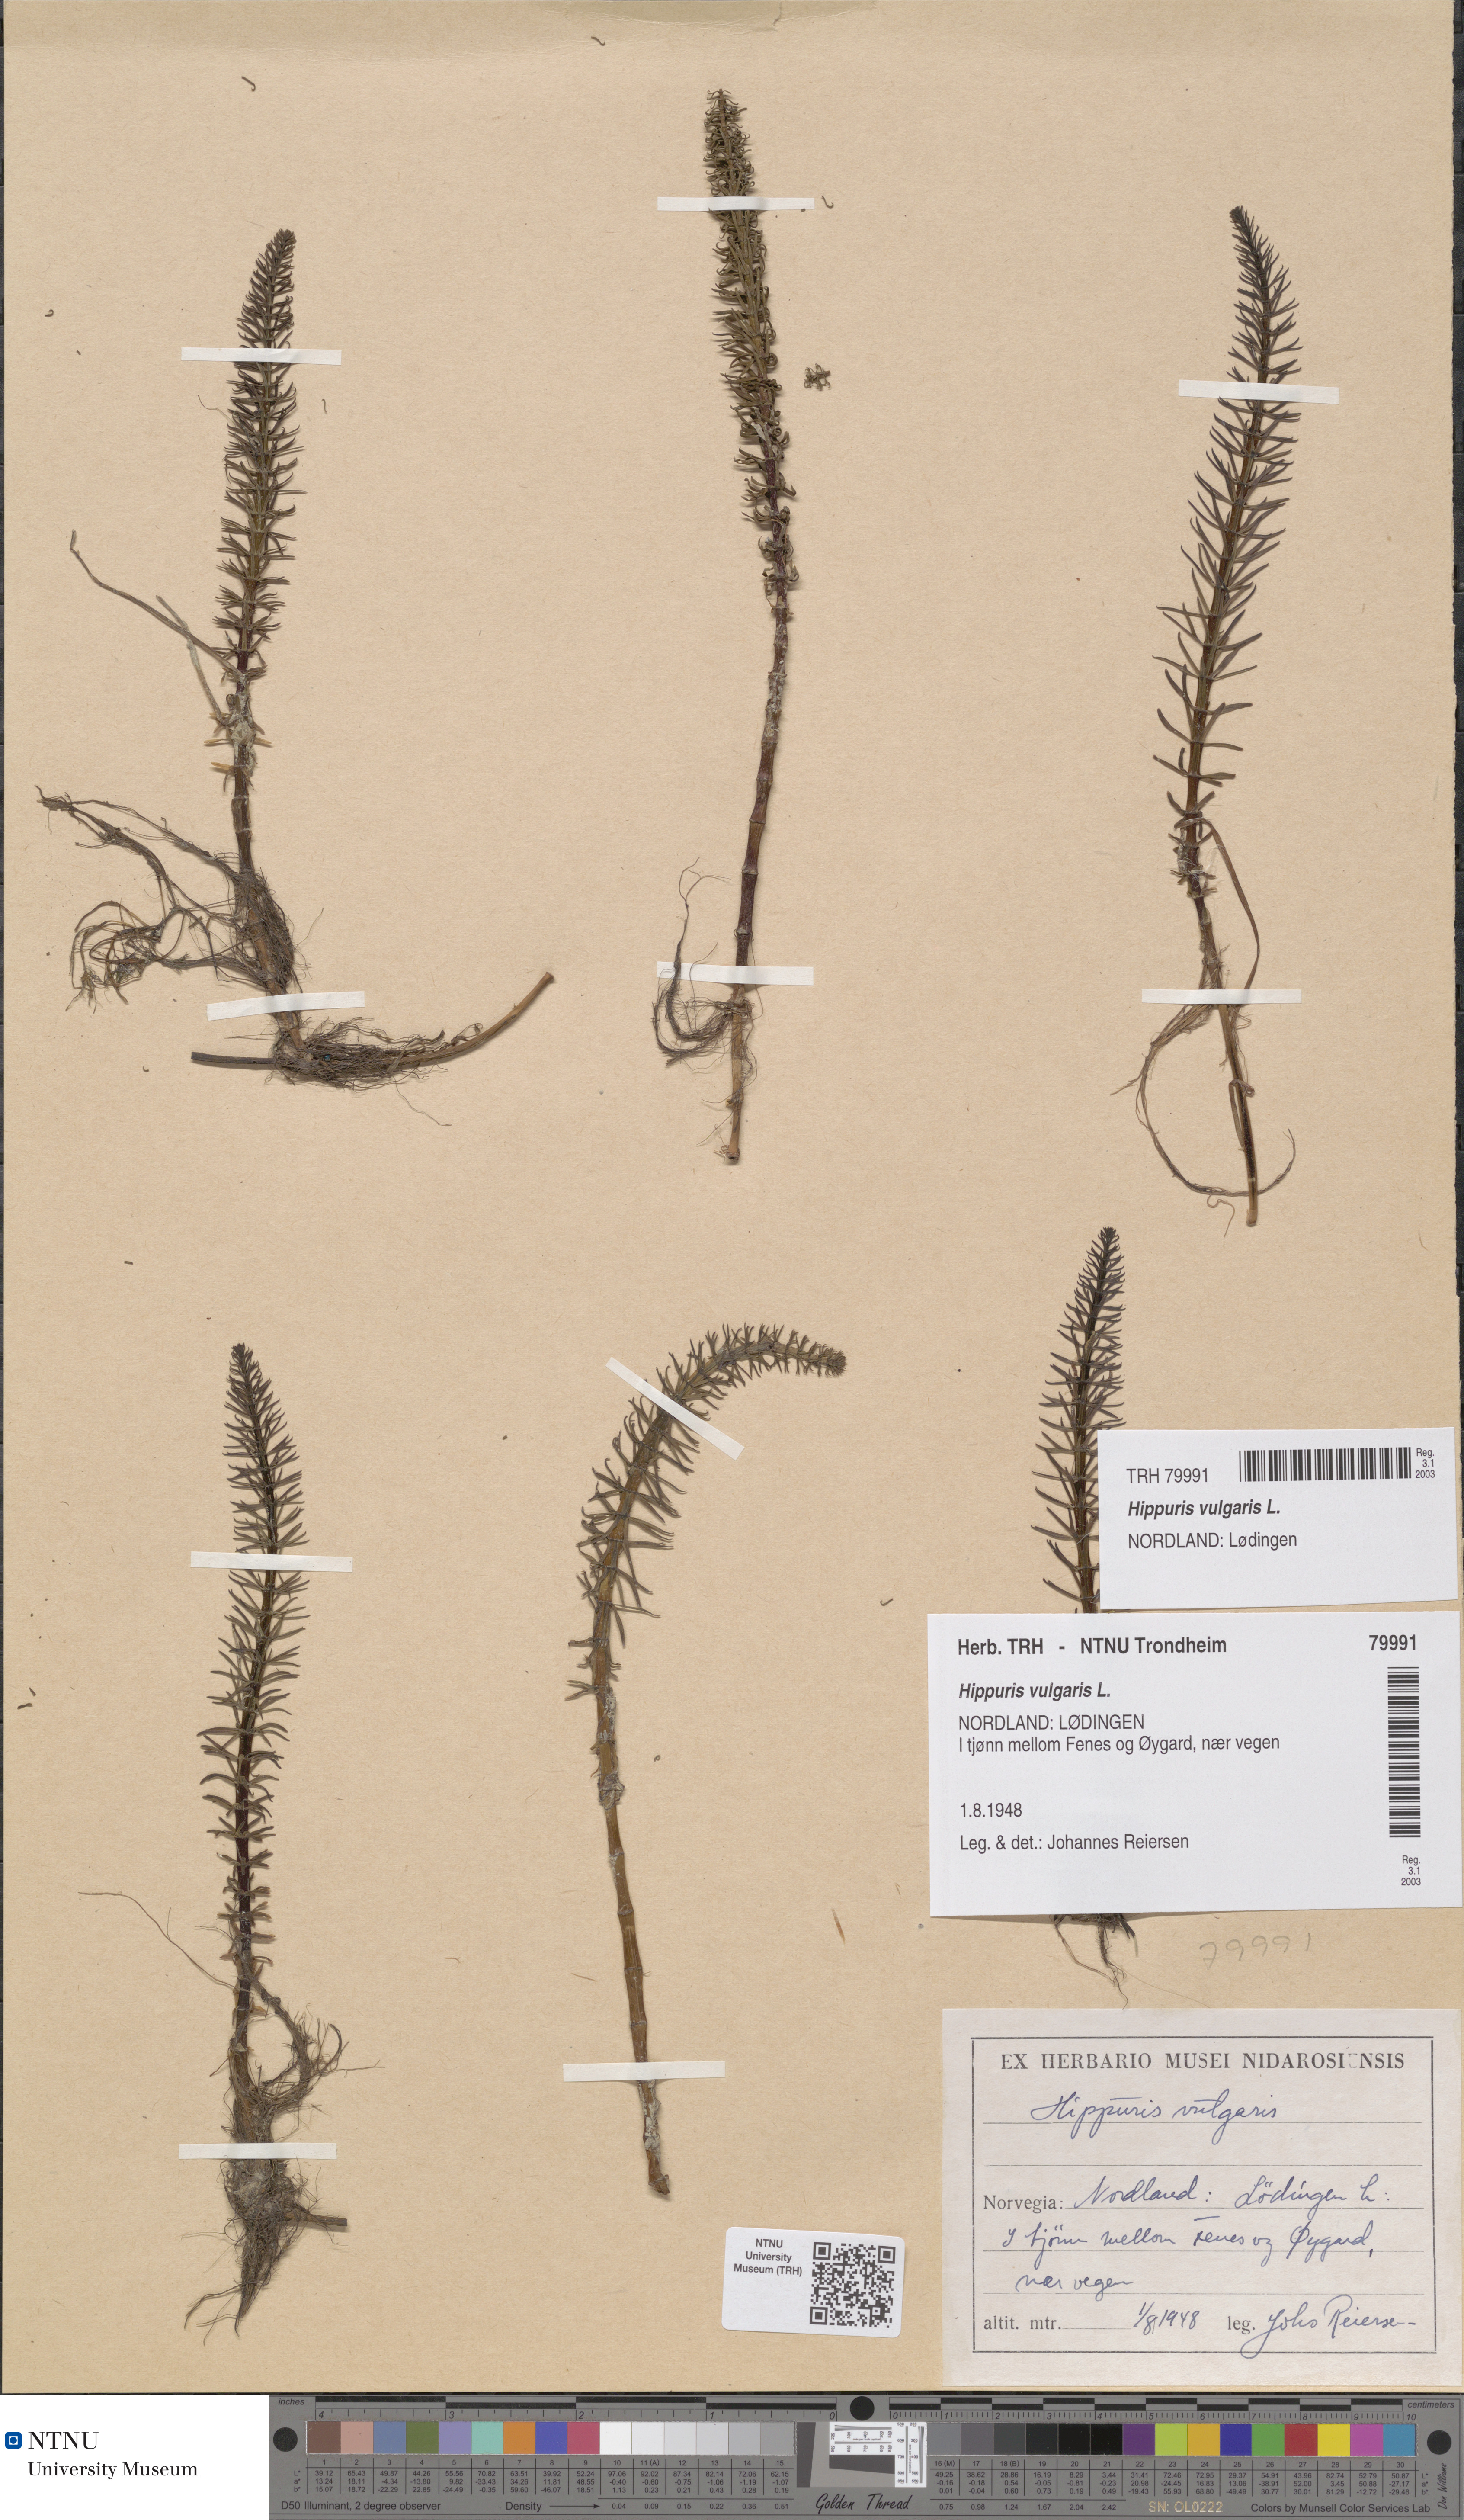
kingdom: Plantae
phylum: Tracheophyta
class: Magnoliopsida
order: Lamiales
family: Plantaginaceae
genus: Hippuris
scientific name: Hippuris vulgaris
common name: Mare's-tail
